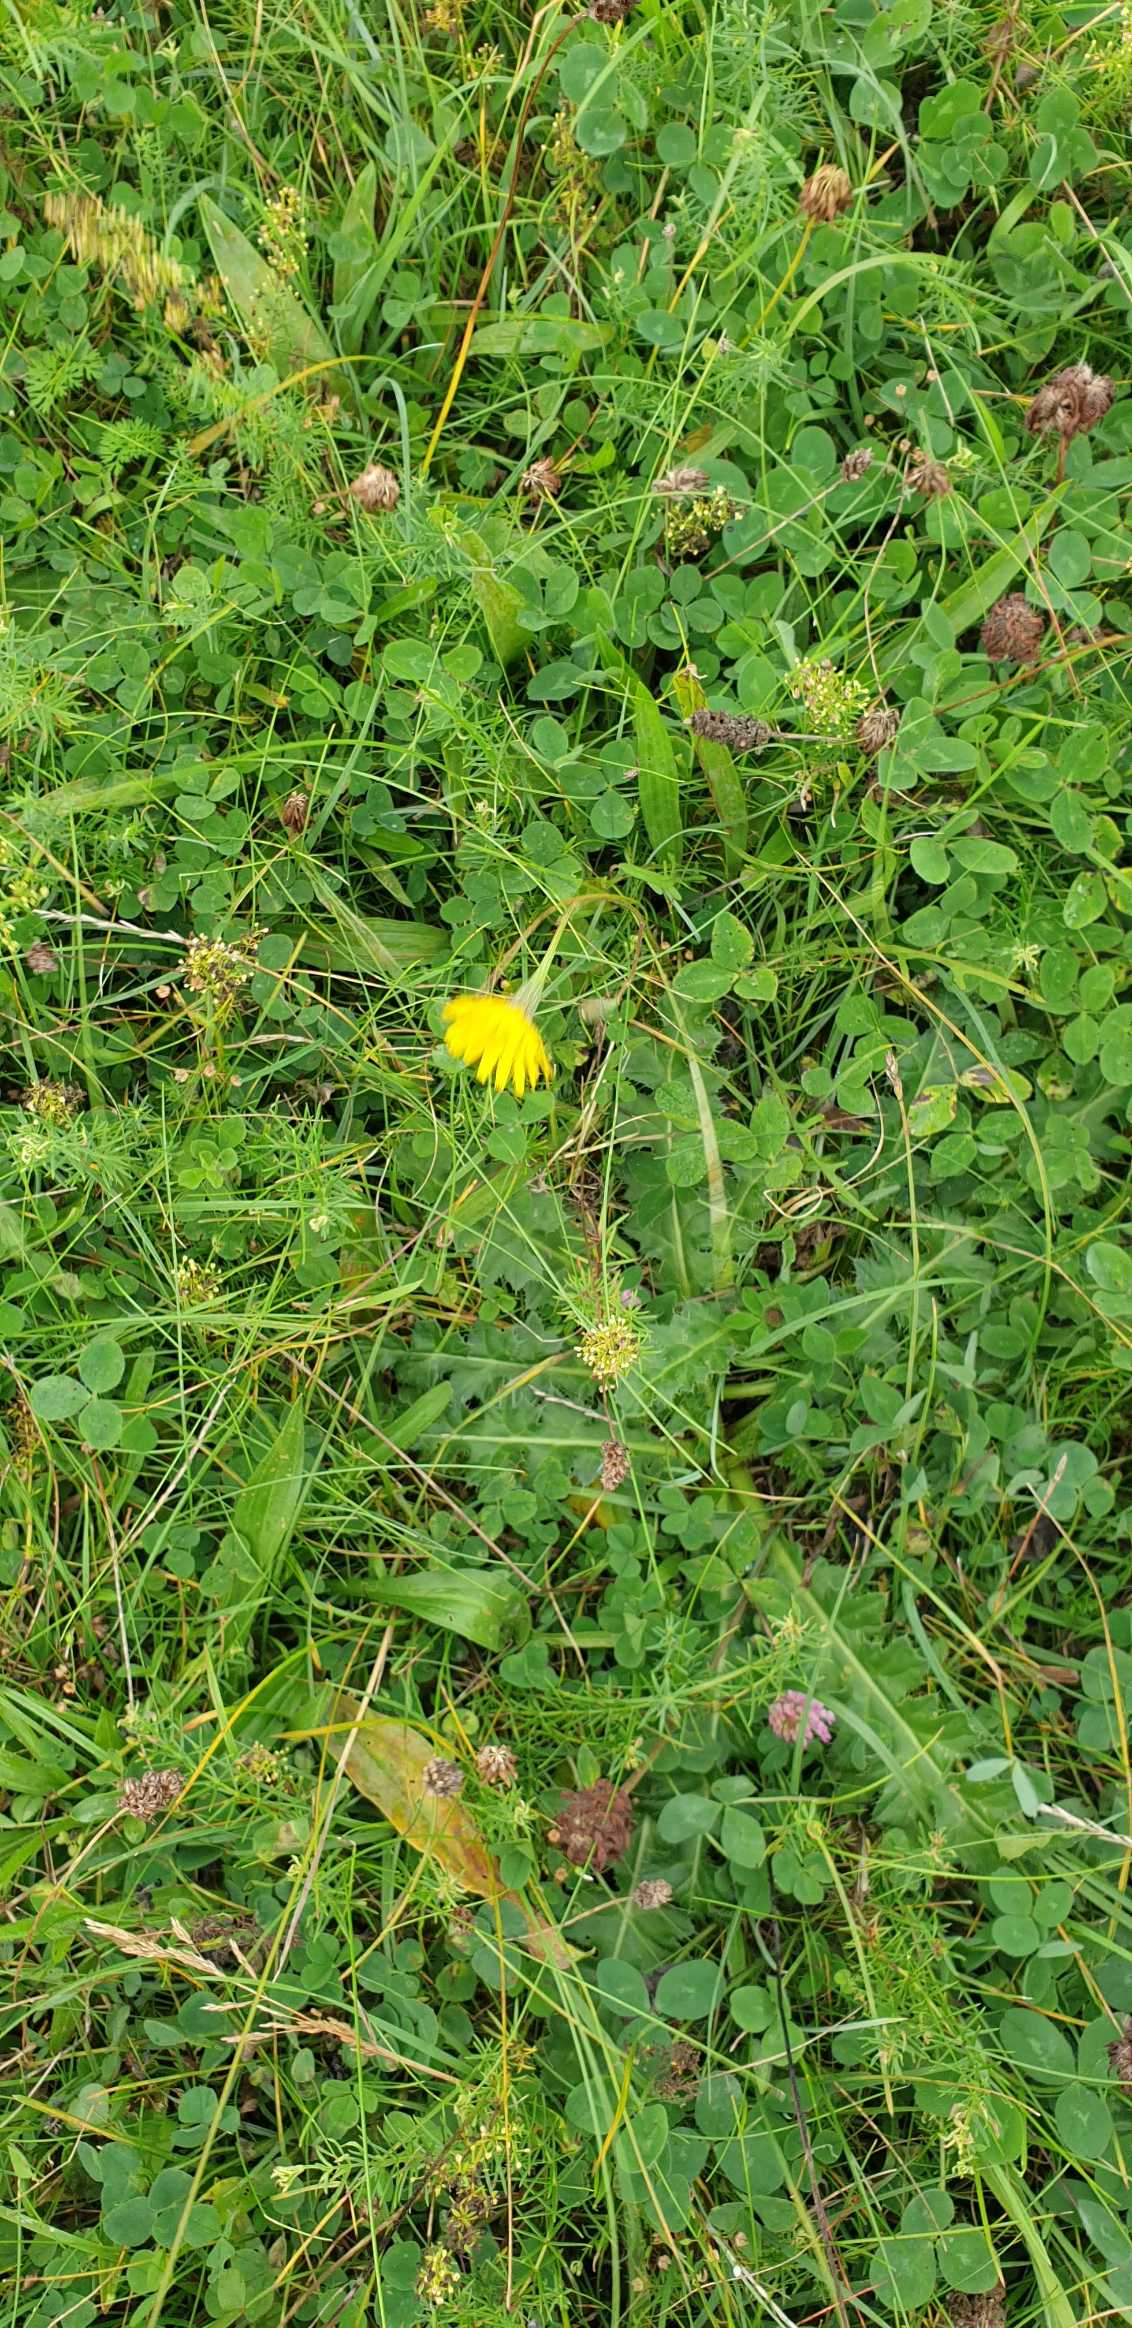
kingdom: Plantae
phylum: Tracheophyta
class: Magnoliopsida
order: Asterales
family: Asteraceae
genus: Scorzoneroides
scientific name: Scorzoneroides autumnalis
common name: Høst-borst
